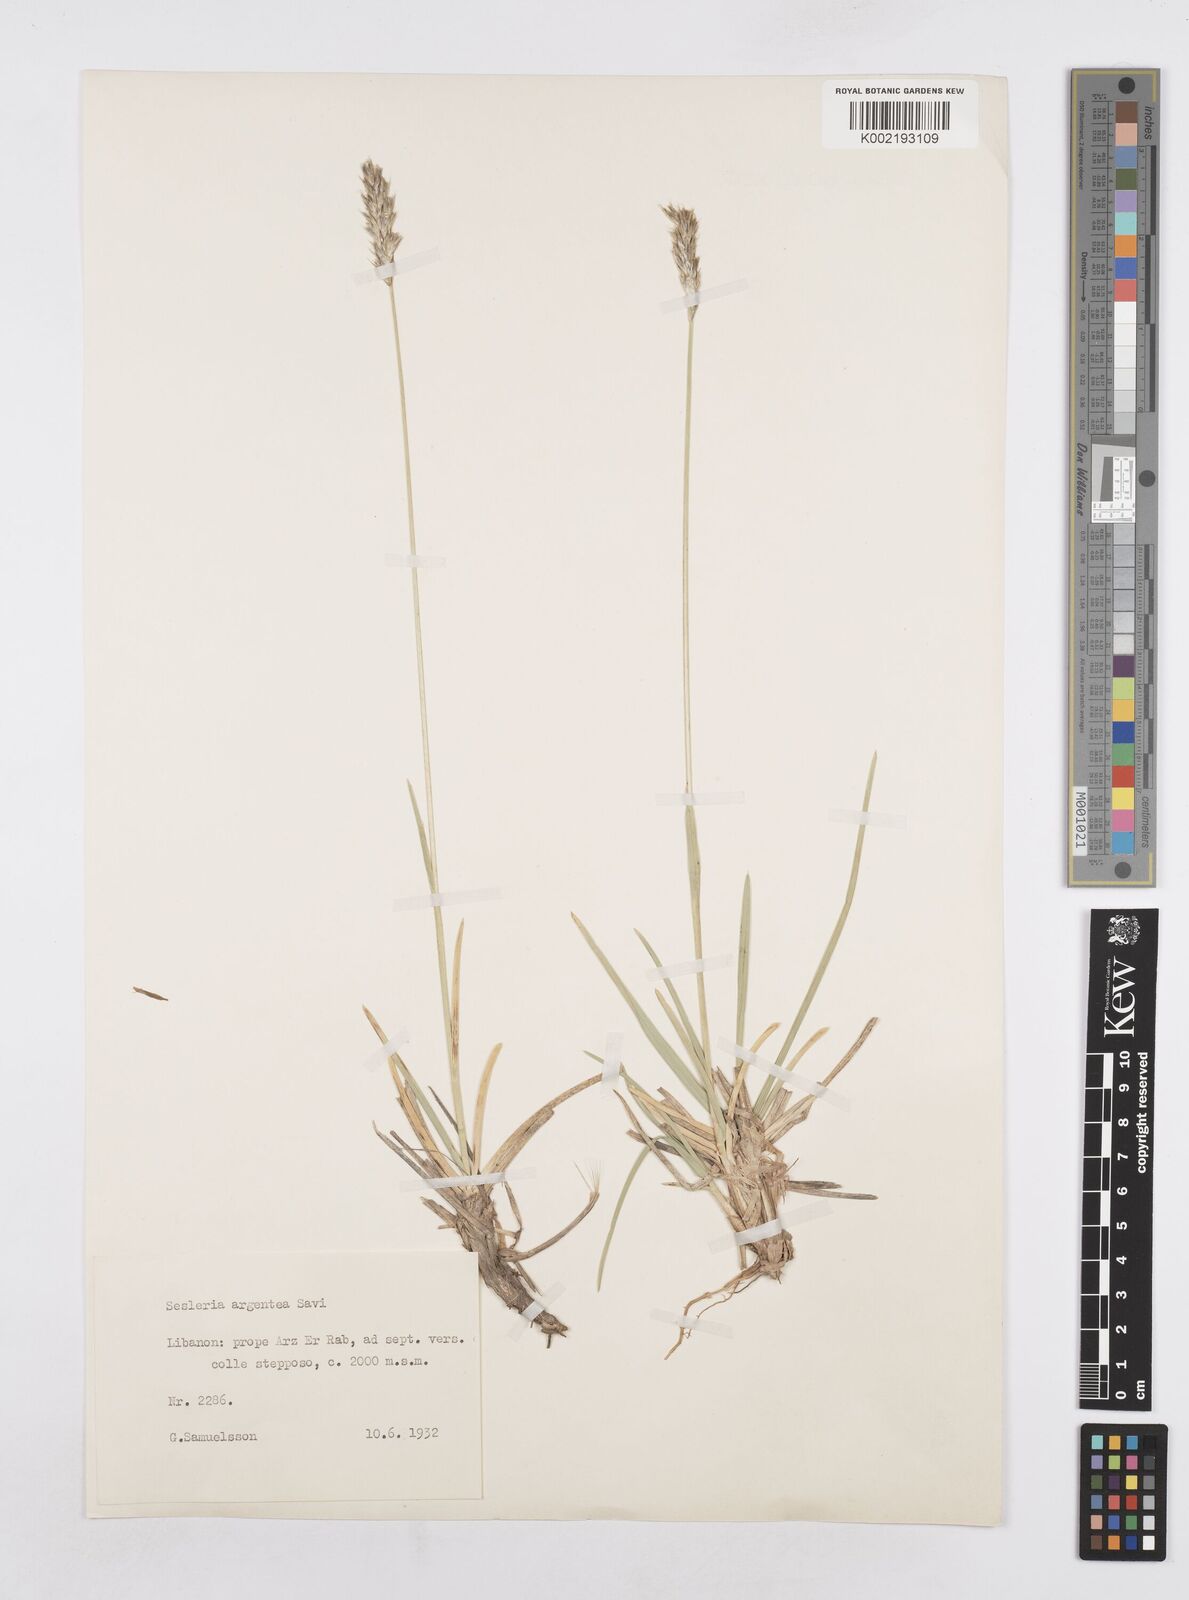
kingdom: Plantae
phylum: Tracheophyta
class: Liliopsida
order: Poales
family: Poaceae
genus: Sesleria
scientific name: Sesleria alba
